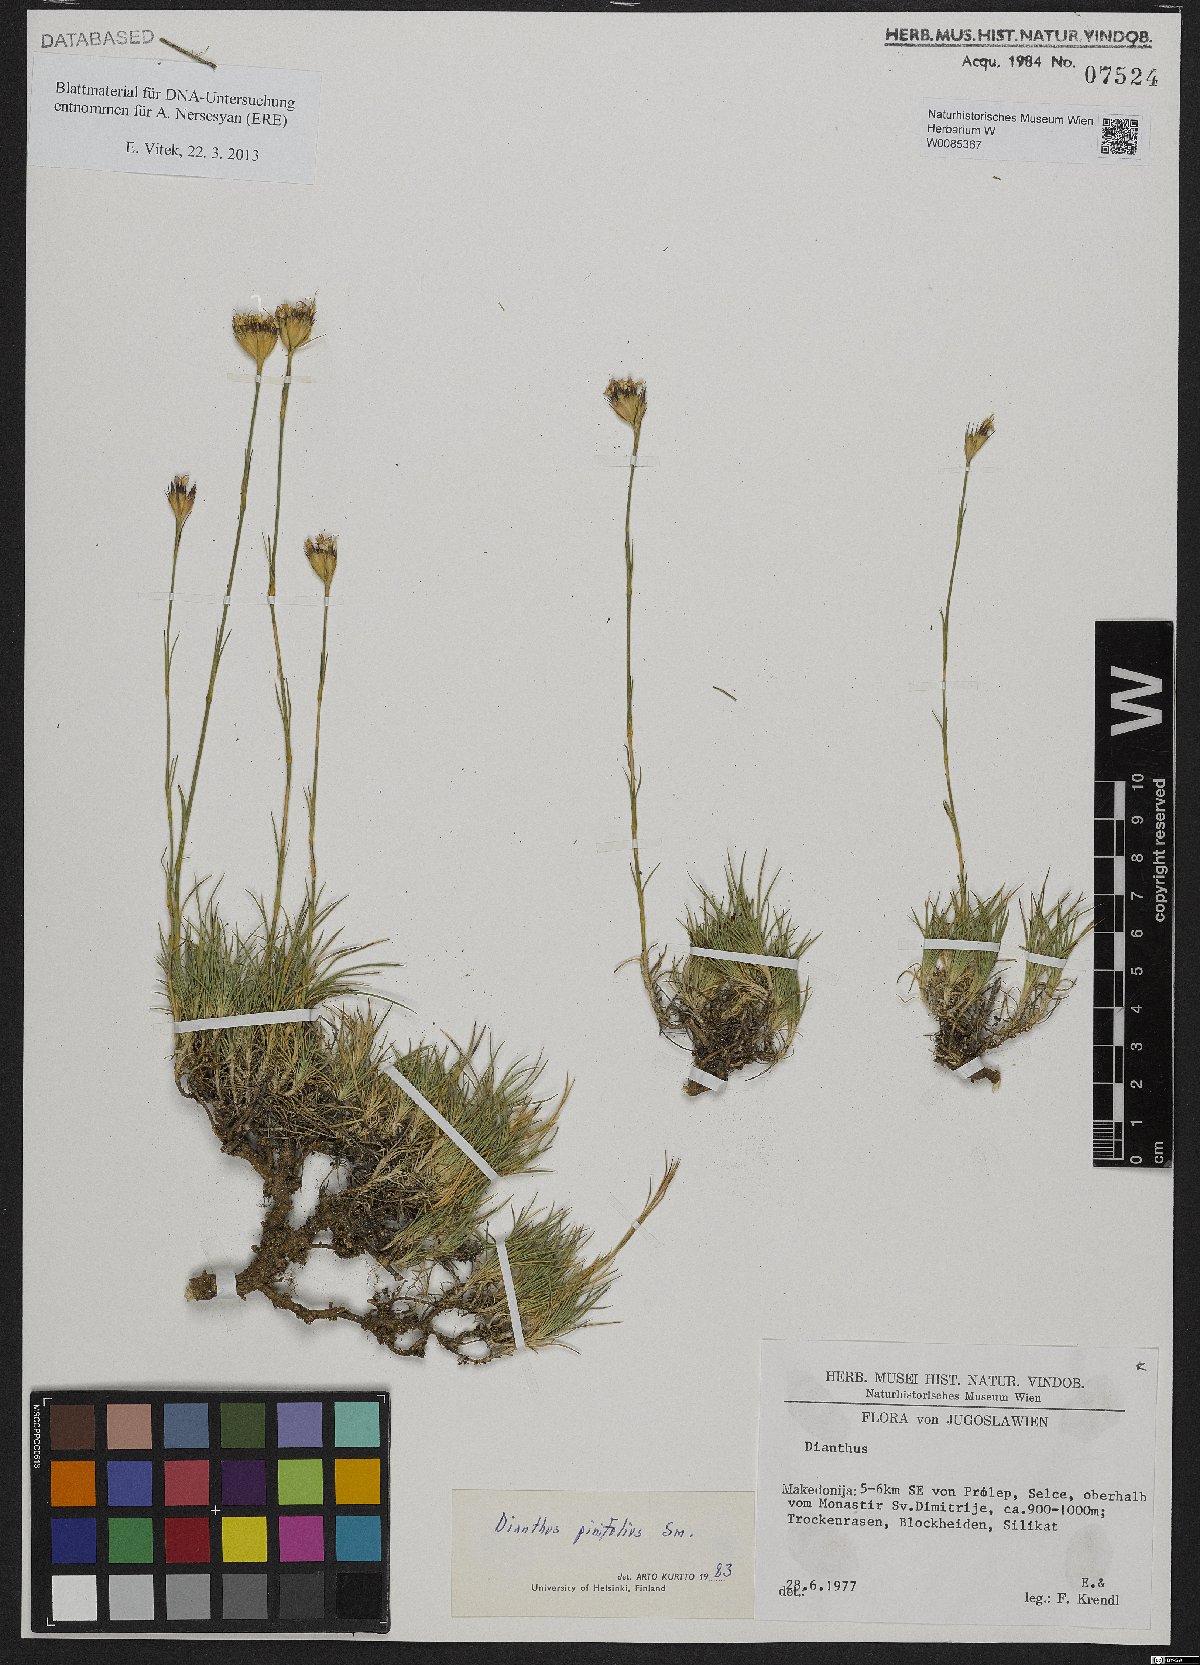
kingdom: Plantae
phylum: Tracheophyta
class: Magnoliopsida
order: Caryophyllales
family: Caryophyllaceae
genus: Dianthus
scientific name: Dianthus pinifolius
